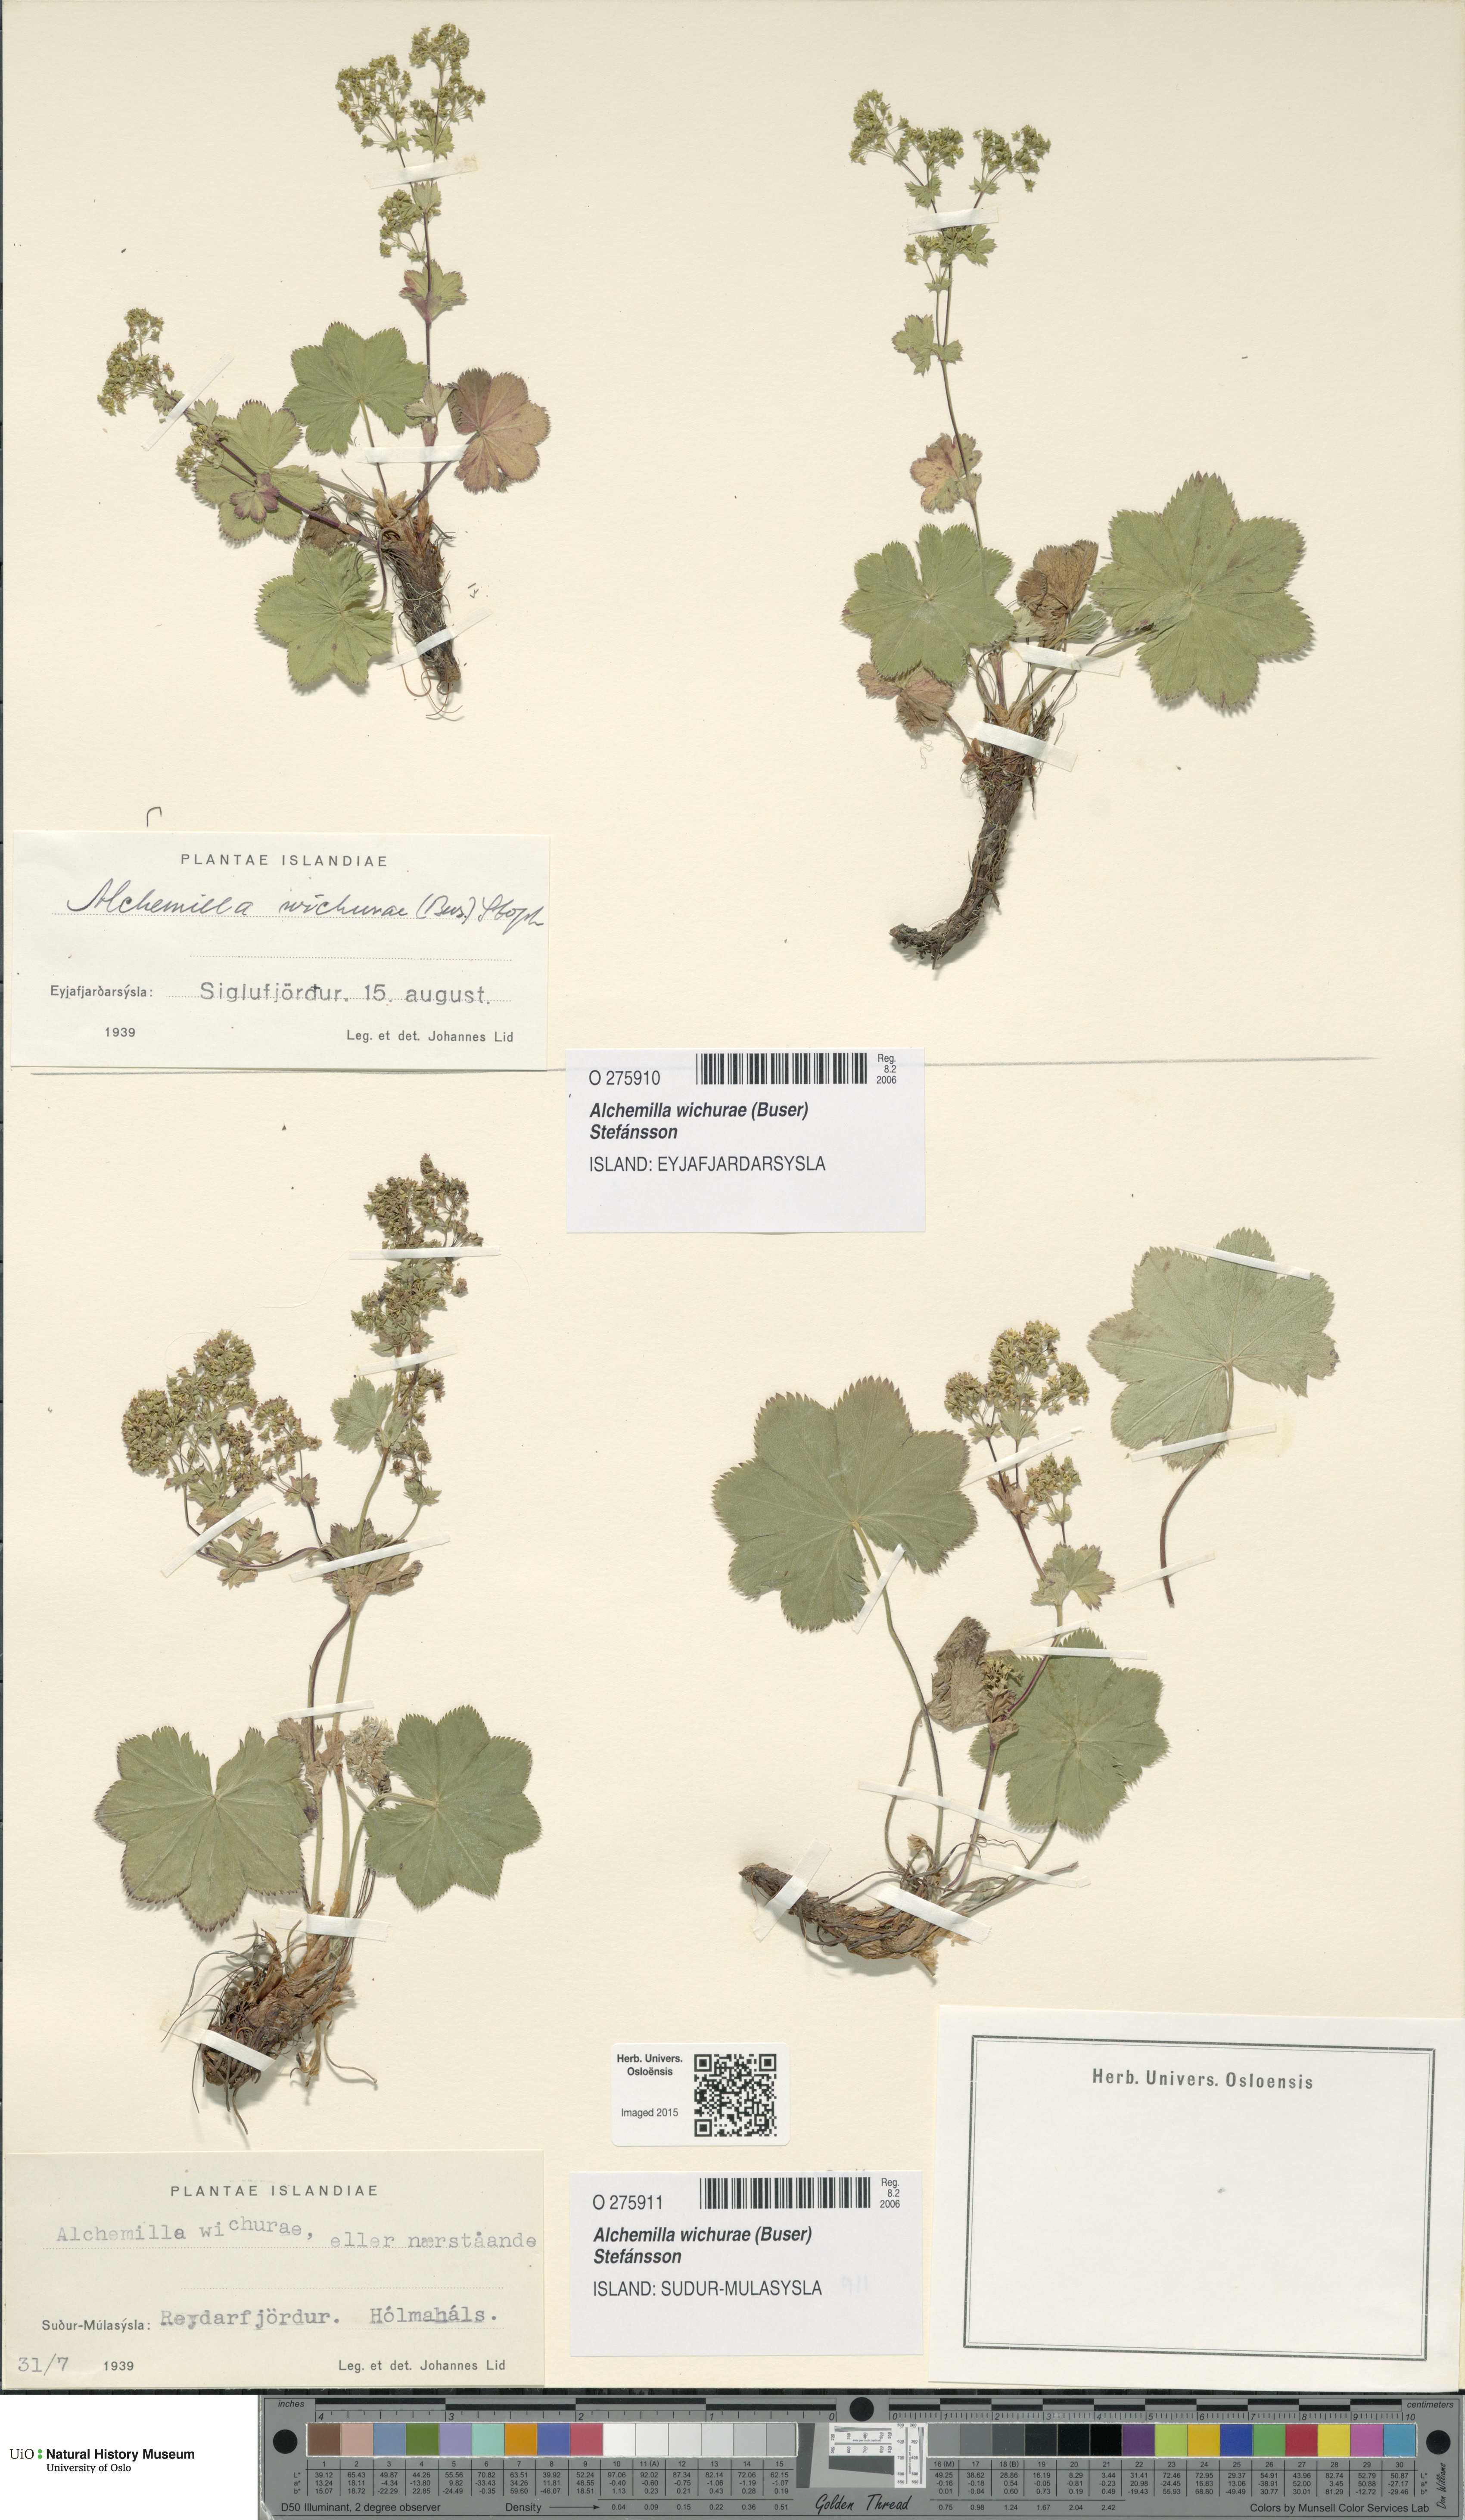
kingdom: Plantae
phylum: Tracheophyta
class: Magnoliopsida
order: Rosales
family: Rosaceae
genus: Alchemilla
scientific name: Alchemilla wichurae
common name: Rock lady's mantle
